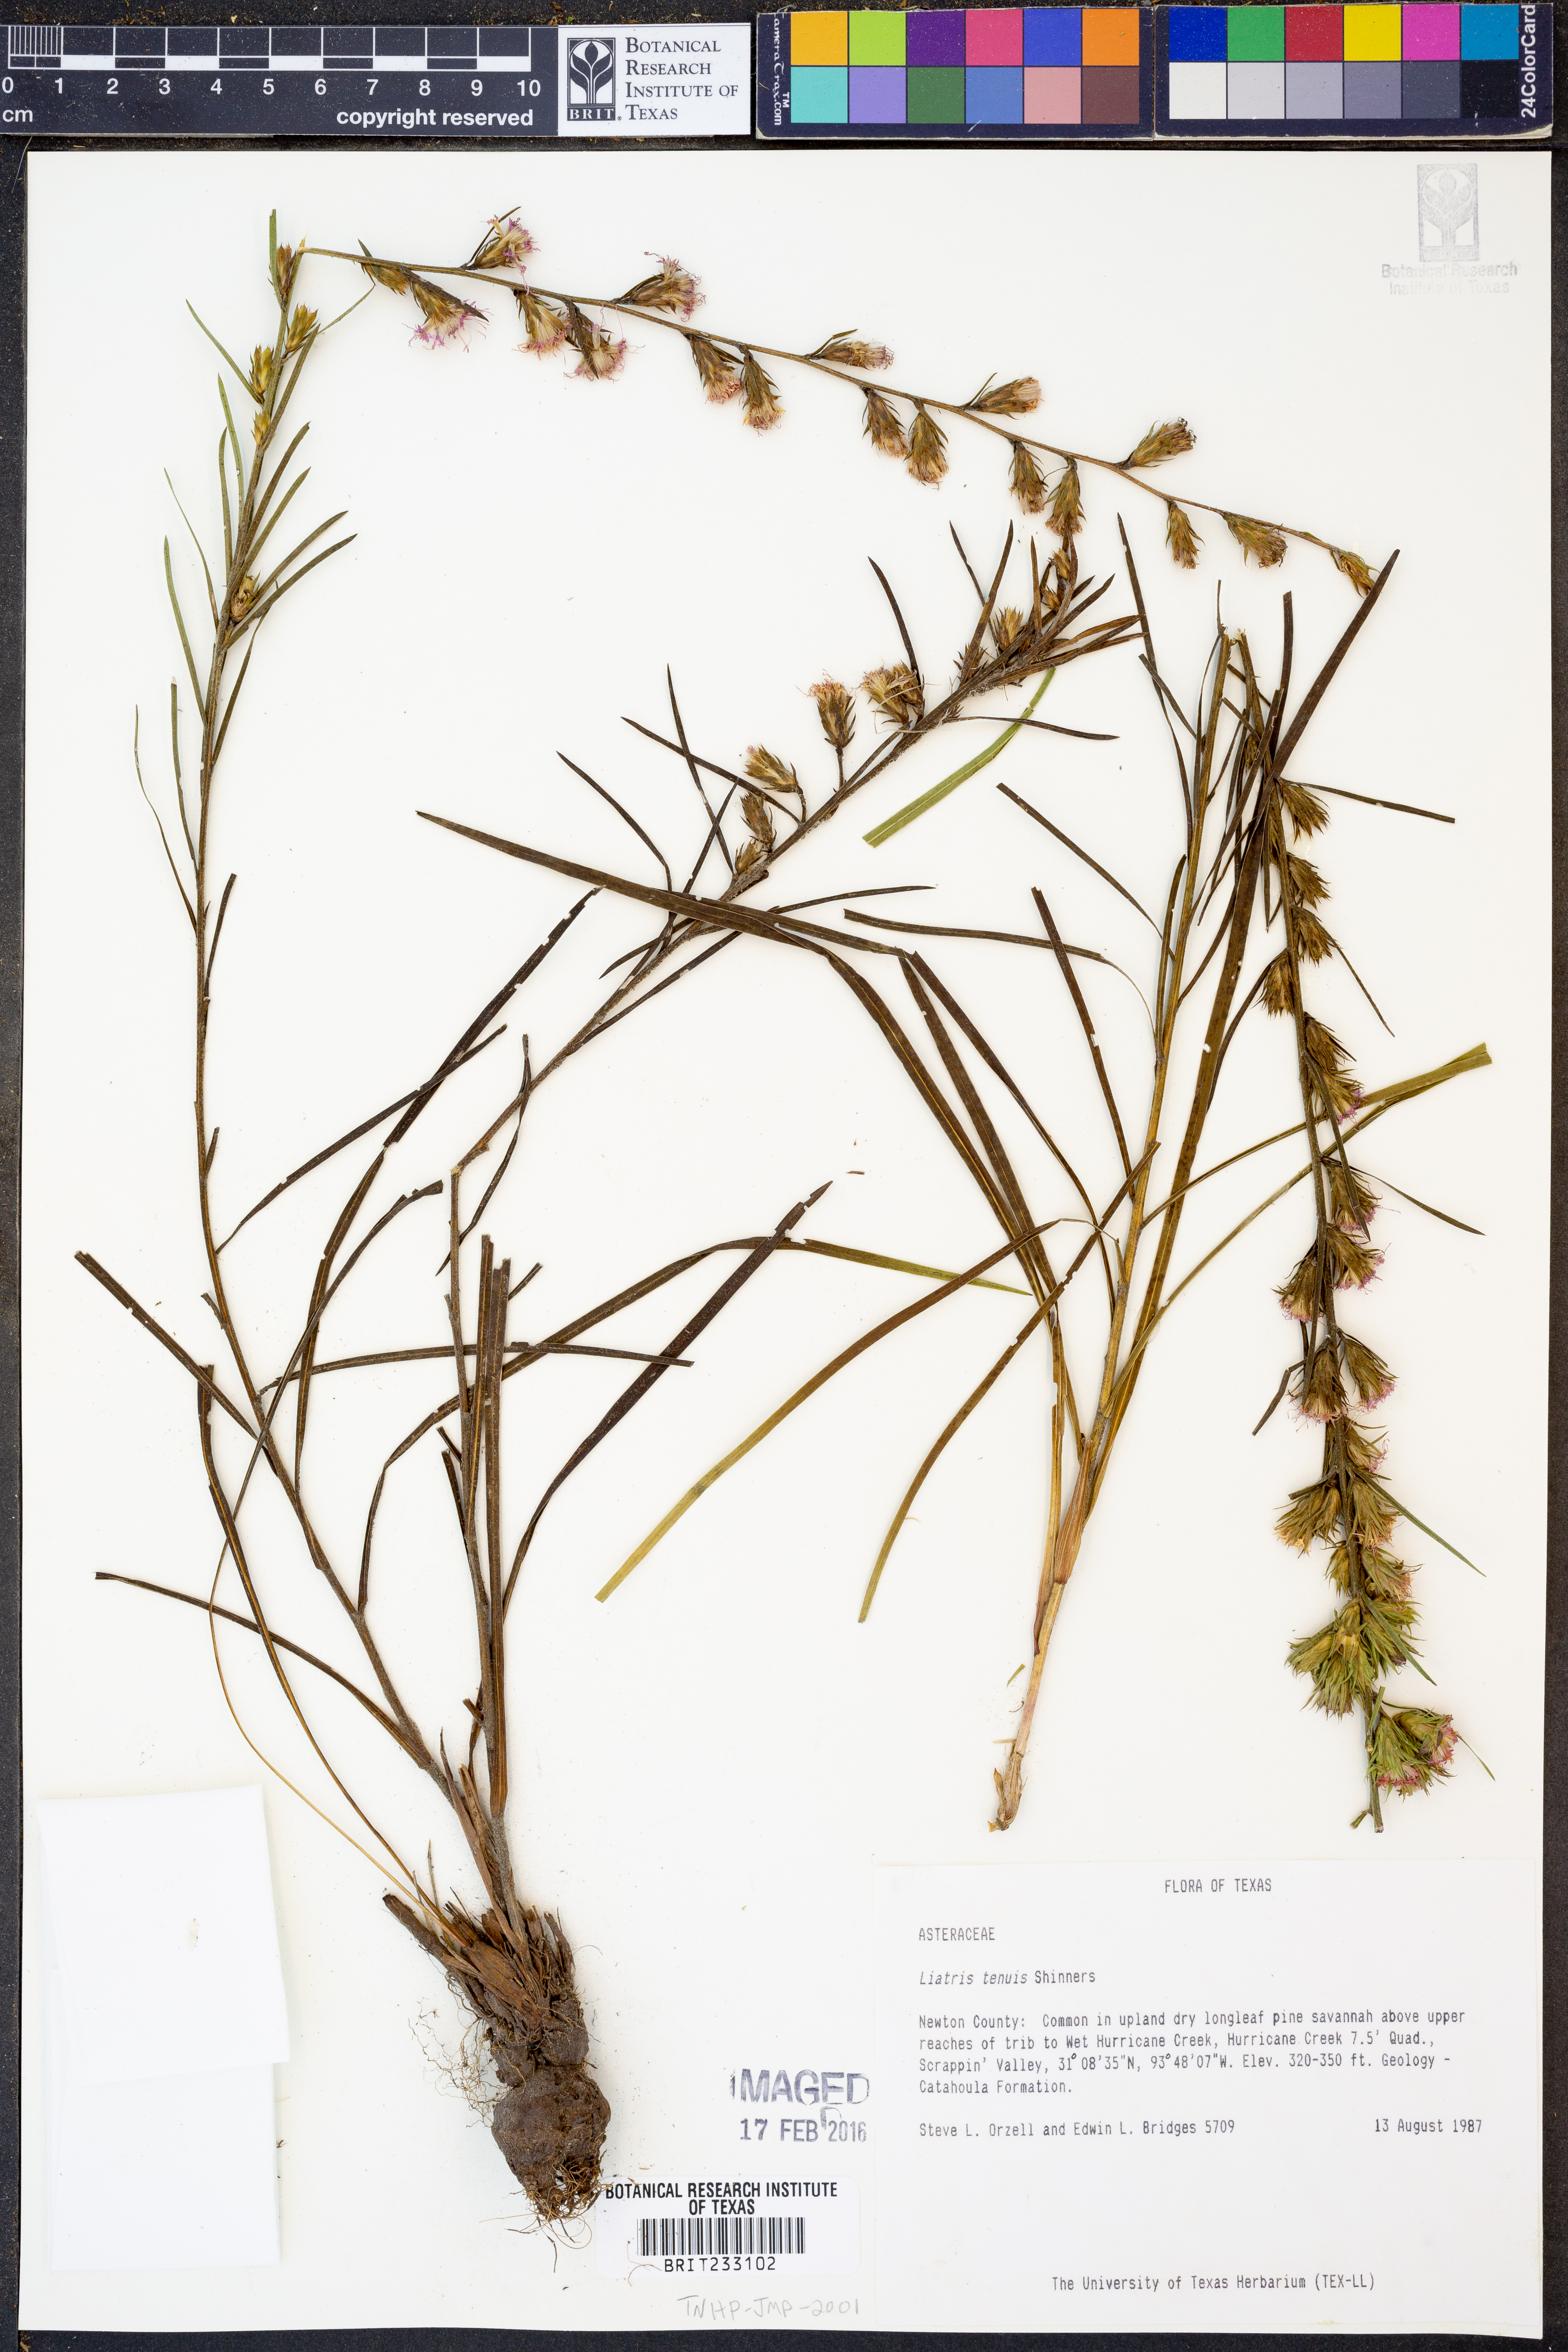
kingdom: Plantae
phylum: Tracheophyta
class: Magnoliopsida
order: Asterales
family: Asteraceae
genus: Liatris
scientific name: Liatris tenuis
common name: Shinner's gayfeather
